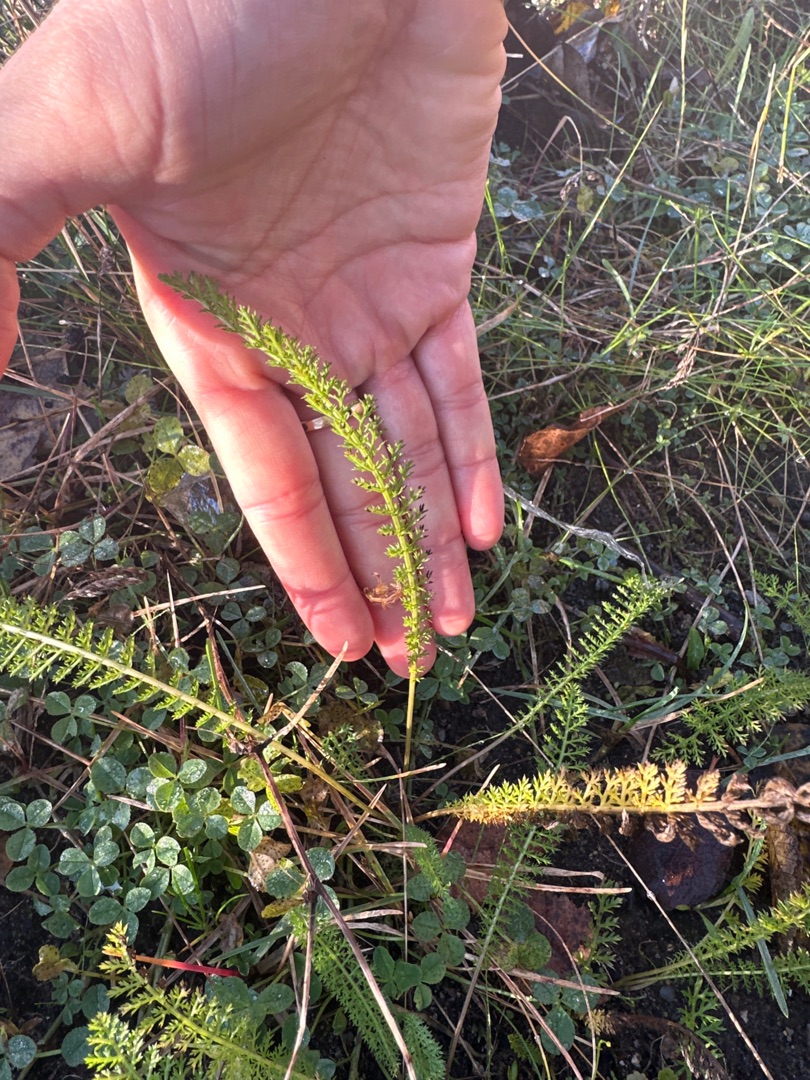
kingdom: Plantae
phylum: Tracheophyta
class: Magnoliopsida
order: Asterales
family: Asteraceae
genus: Achillea
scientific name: Achillea millefolium
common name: Almindelig røllike
